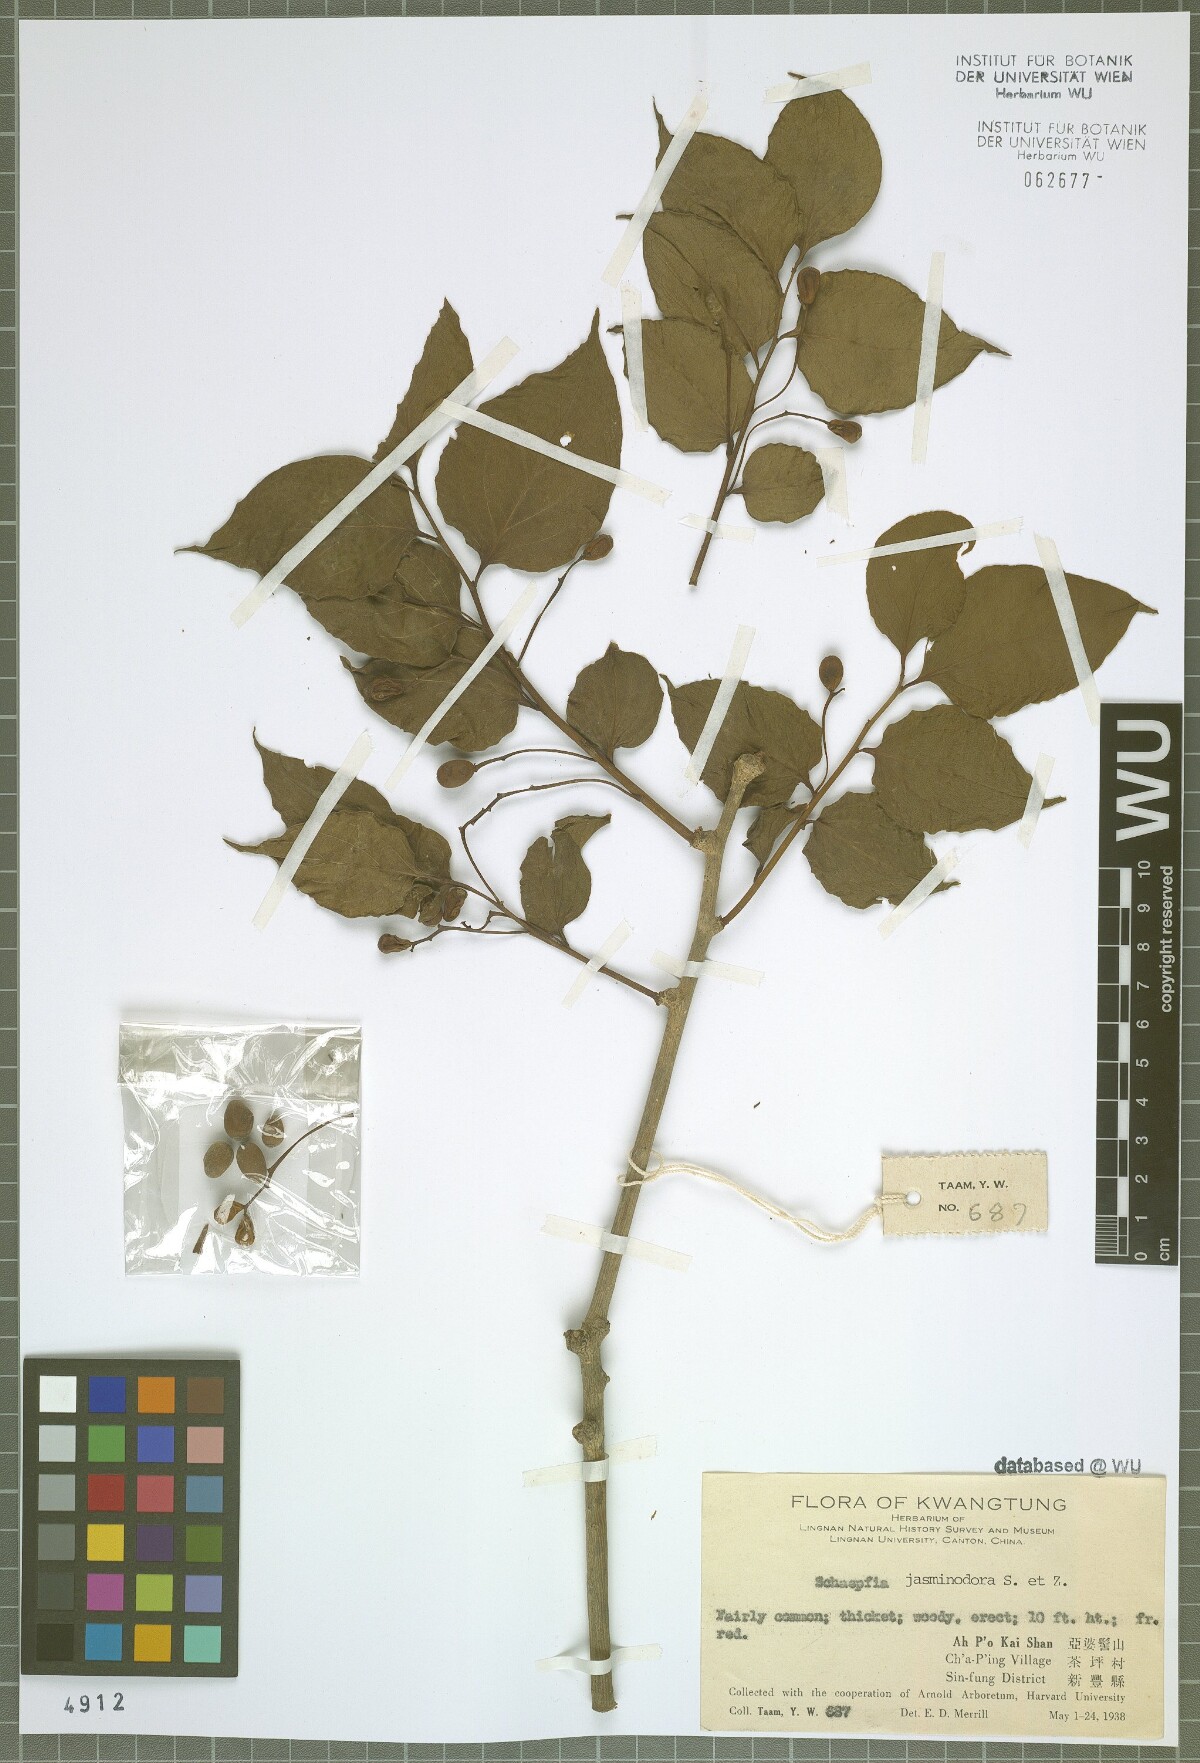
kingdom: Plantae
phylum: Tracheophyta
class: Magnoliopsida
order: Santalales
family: Schoepfiaceae
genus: Schoepfia
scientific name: Schoepfia jasminodora
